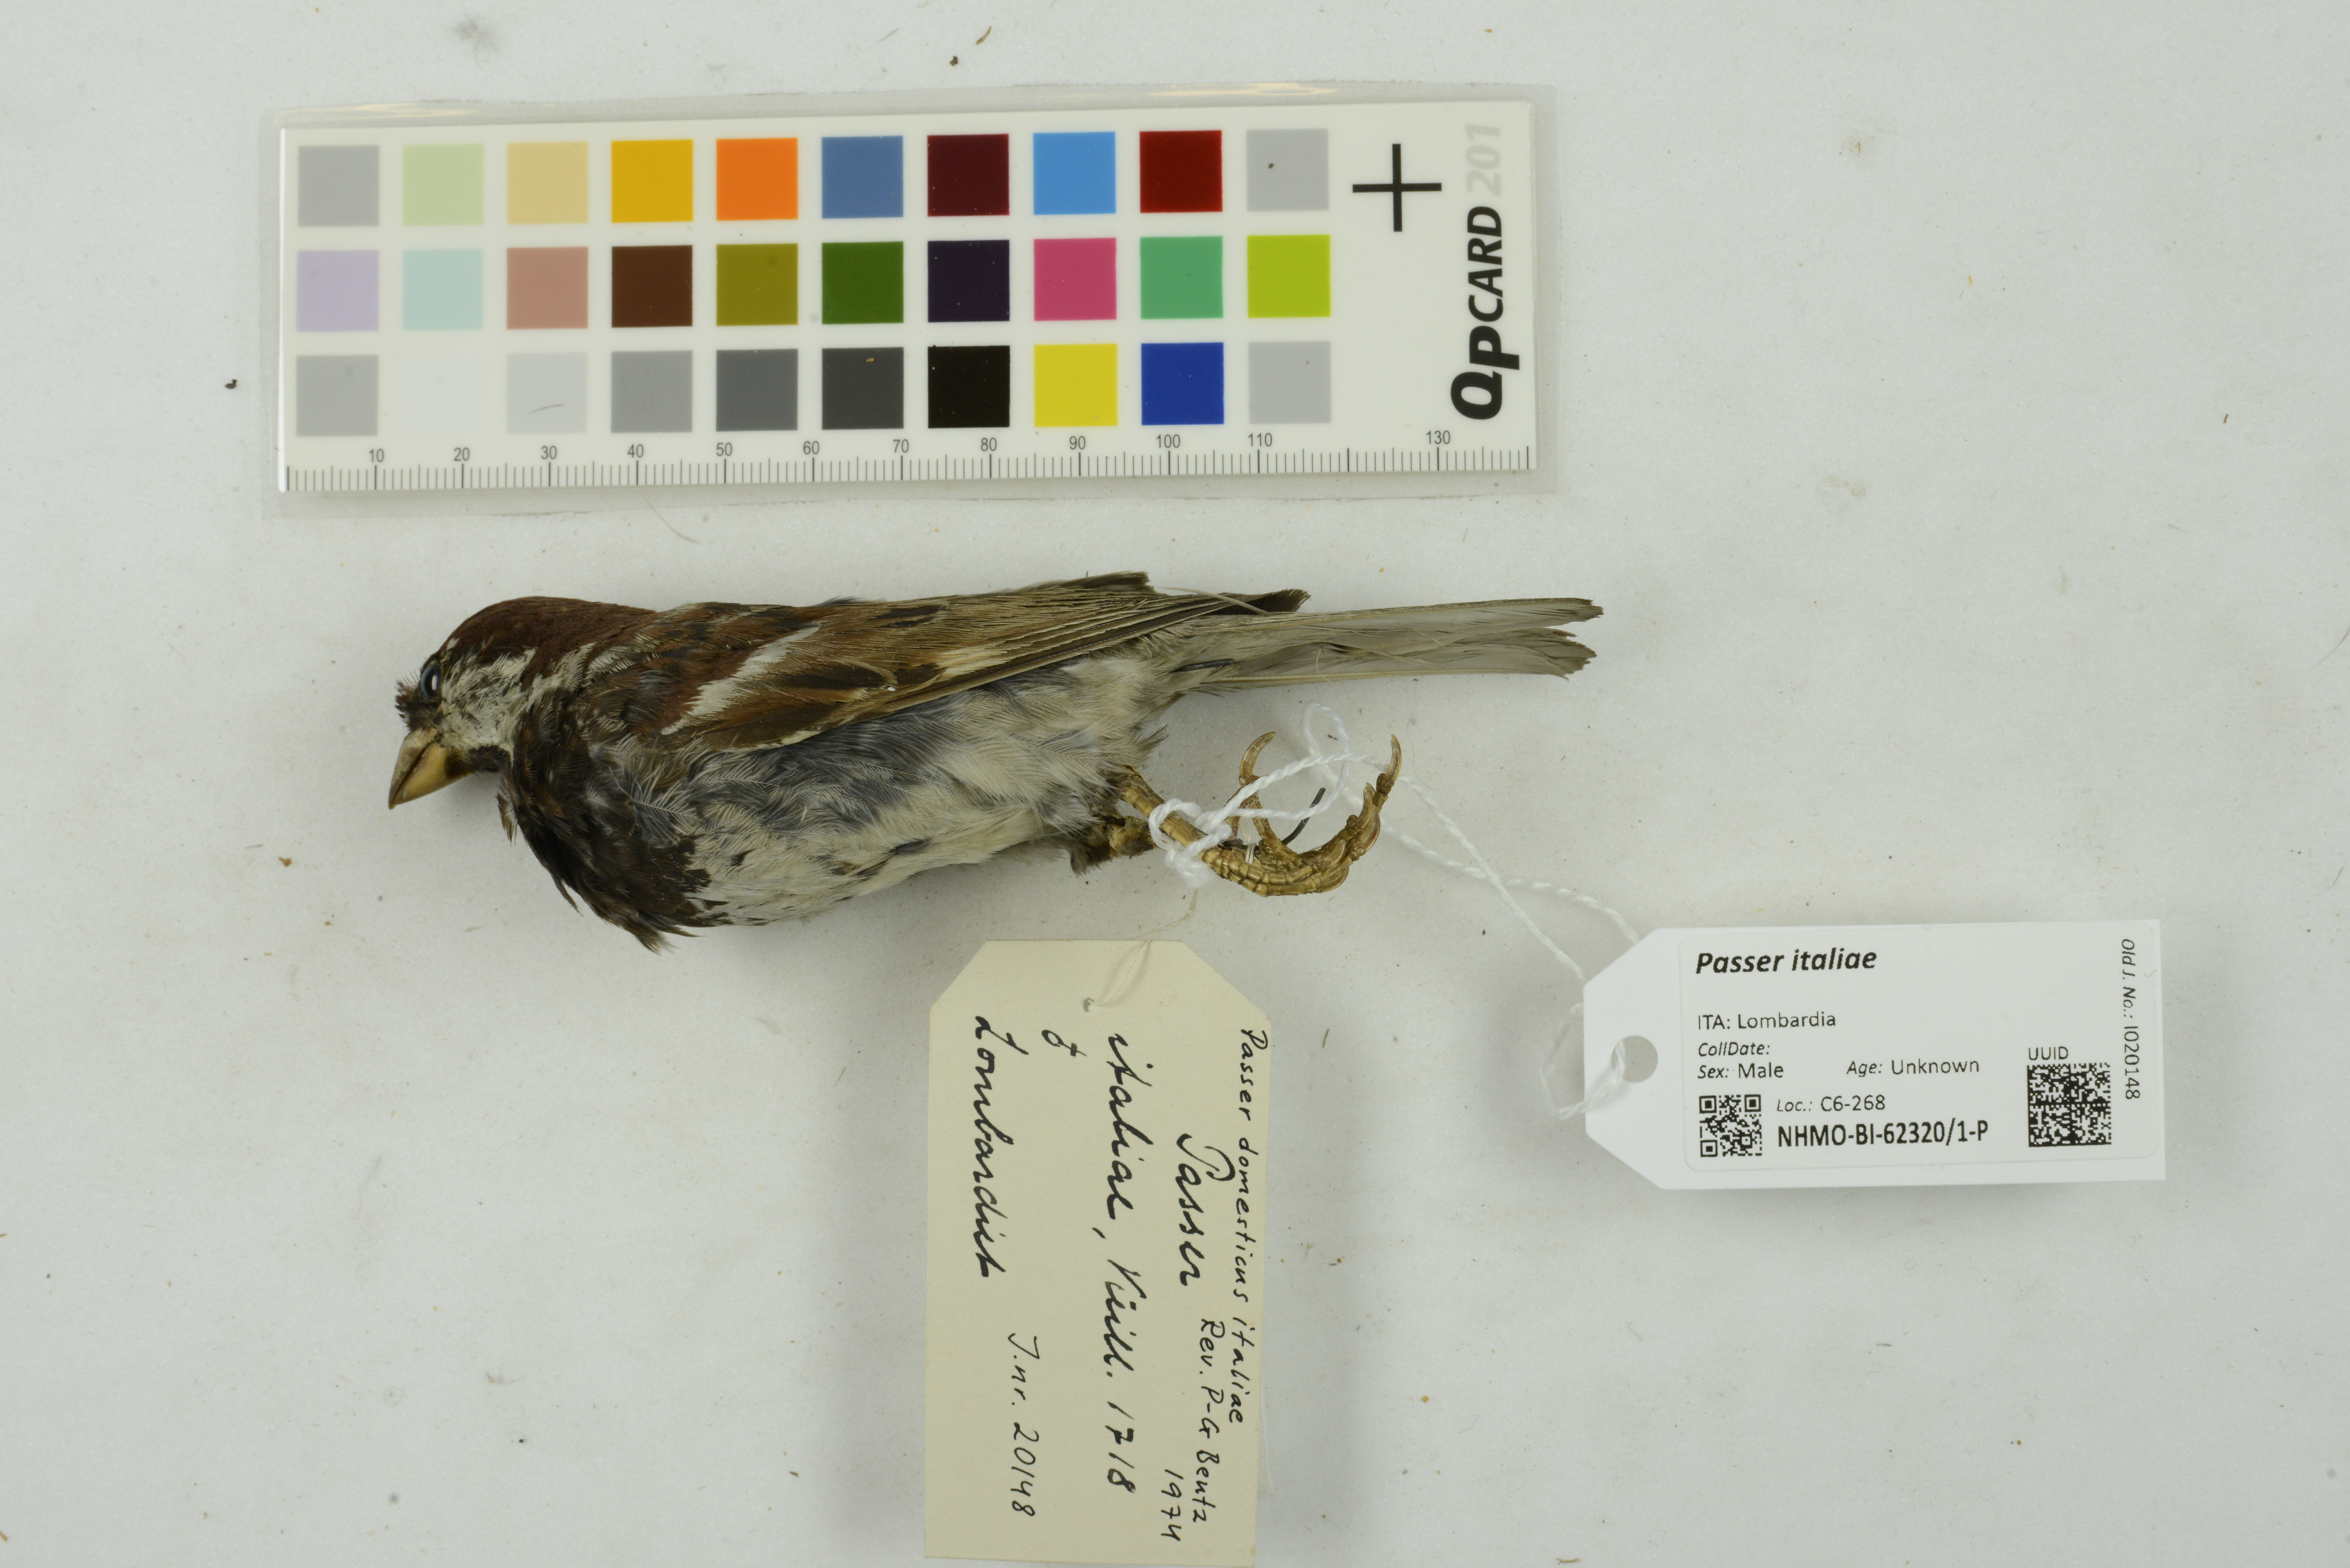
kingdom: Animalia
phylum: Chordata
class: Aves
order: Passeriformes
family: Passeridae
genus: Passer
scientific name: Passer italiae
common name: Italian sparrow
